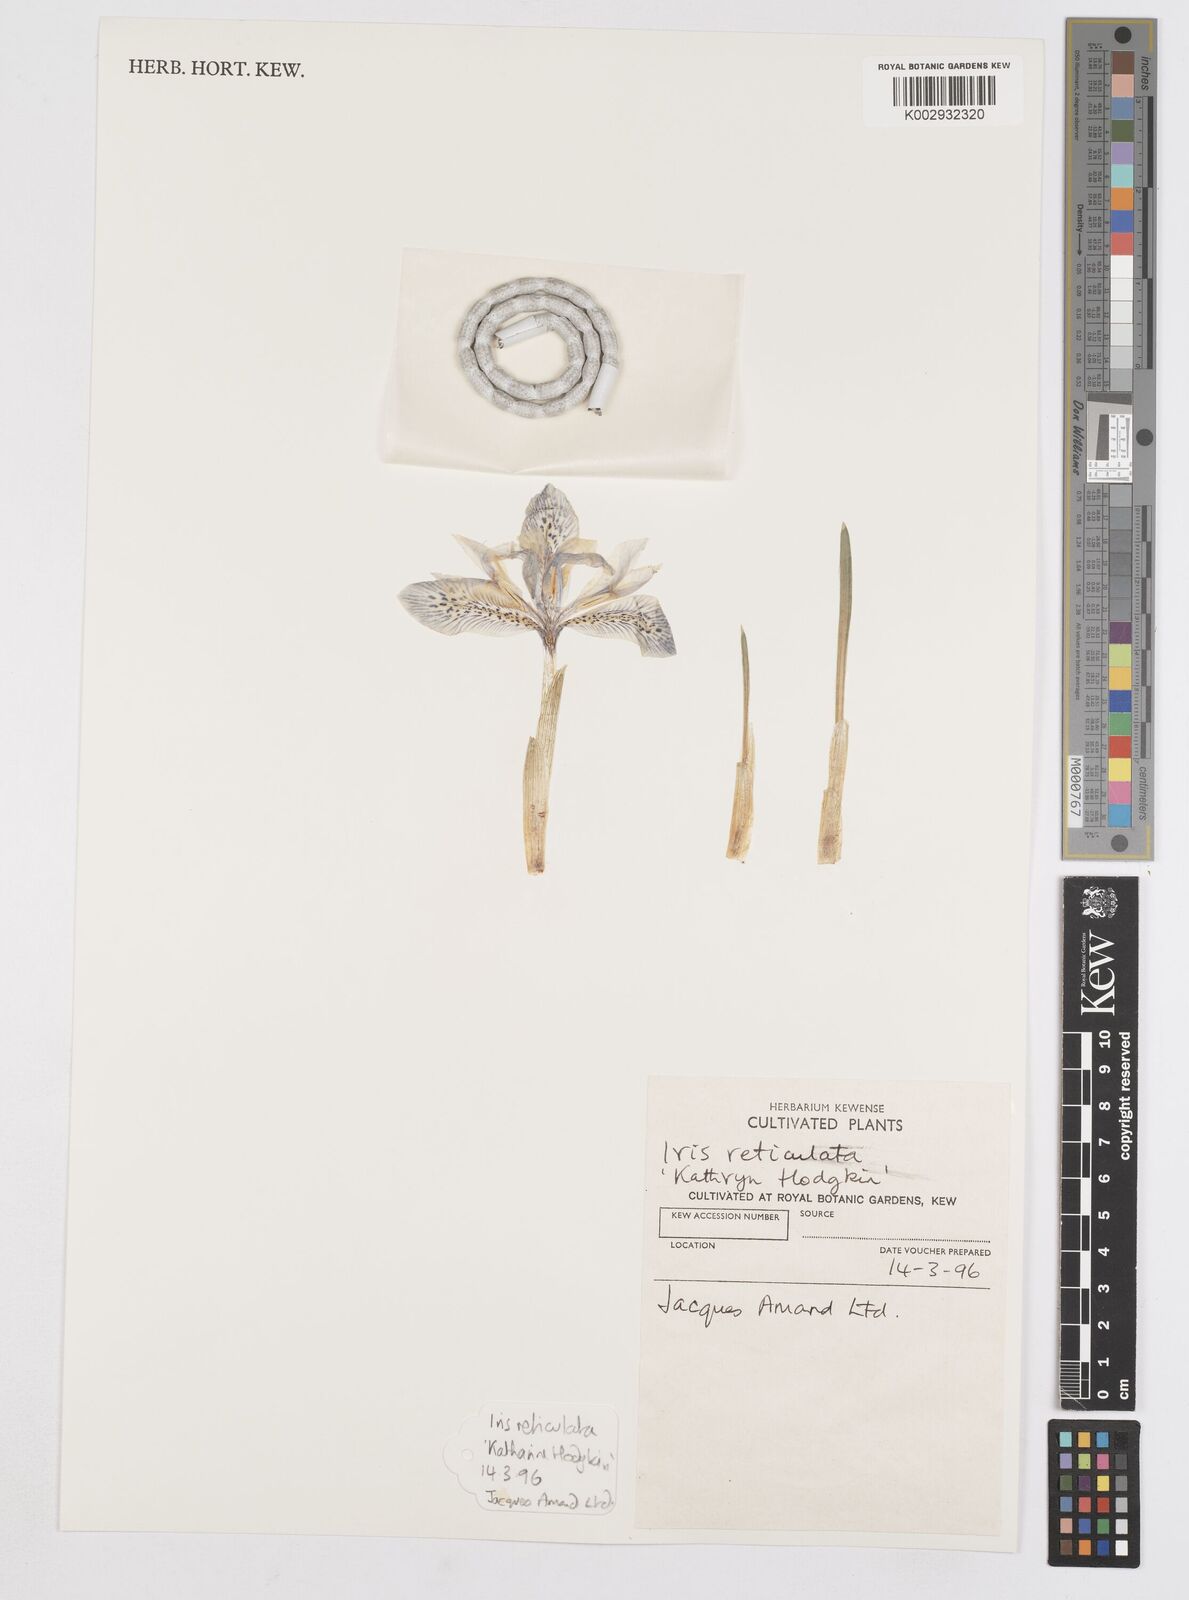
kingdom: Plantae
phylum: Tracheophyta
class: Liliopsida
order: Asparagales
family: Iridaceae
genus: Iris
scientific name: Iris reticulata
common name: Netted iris
